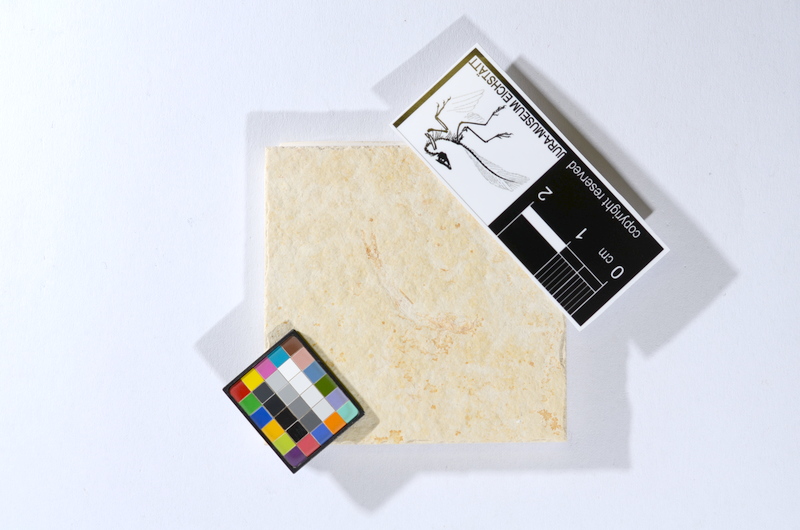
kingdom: Animalia
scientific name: Animalia
